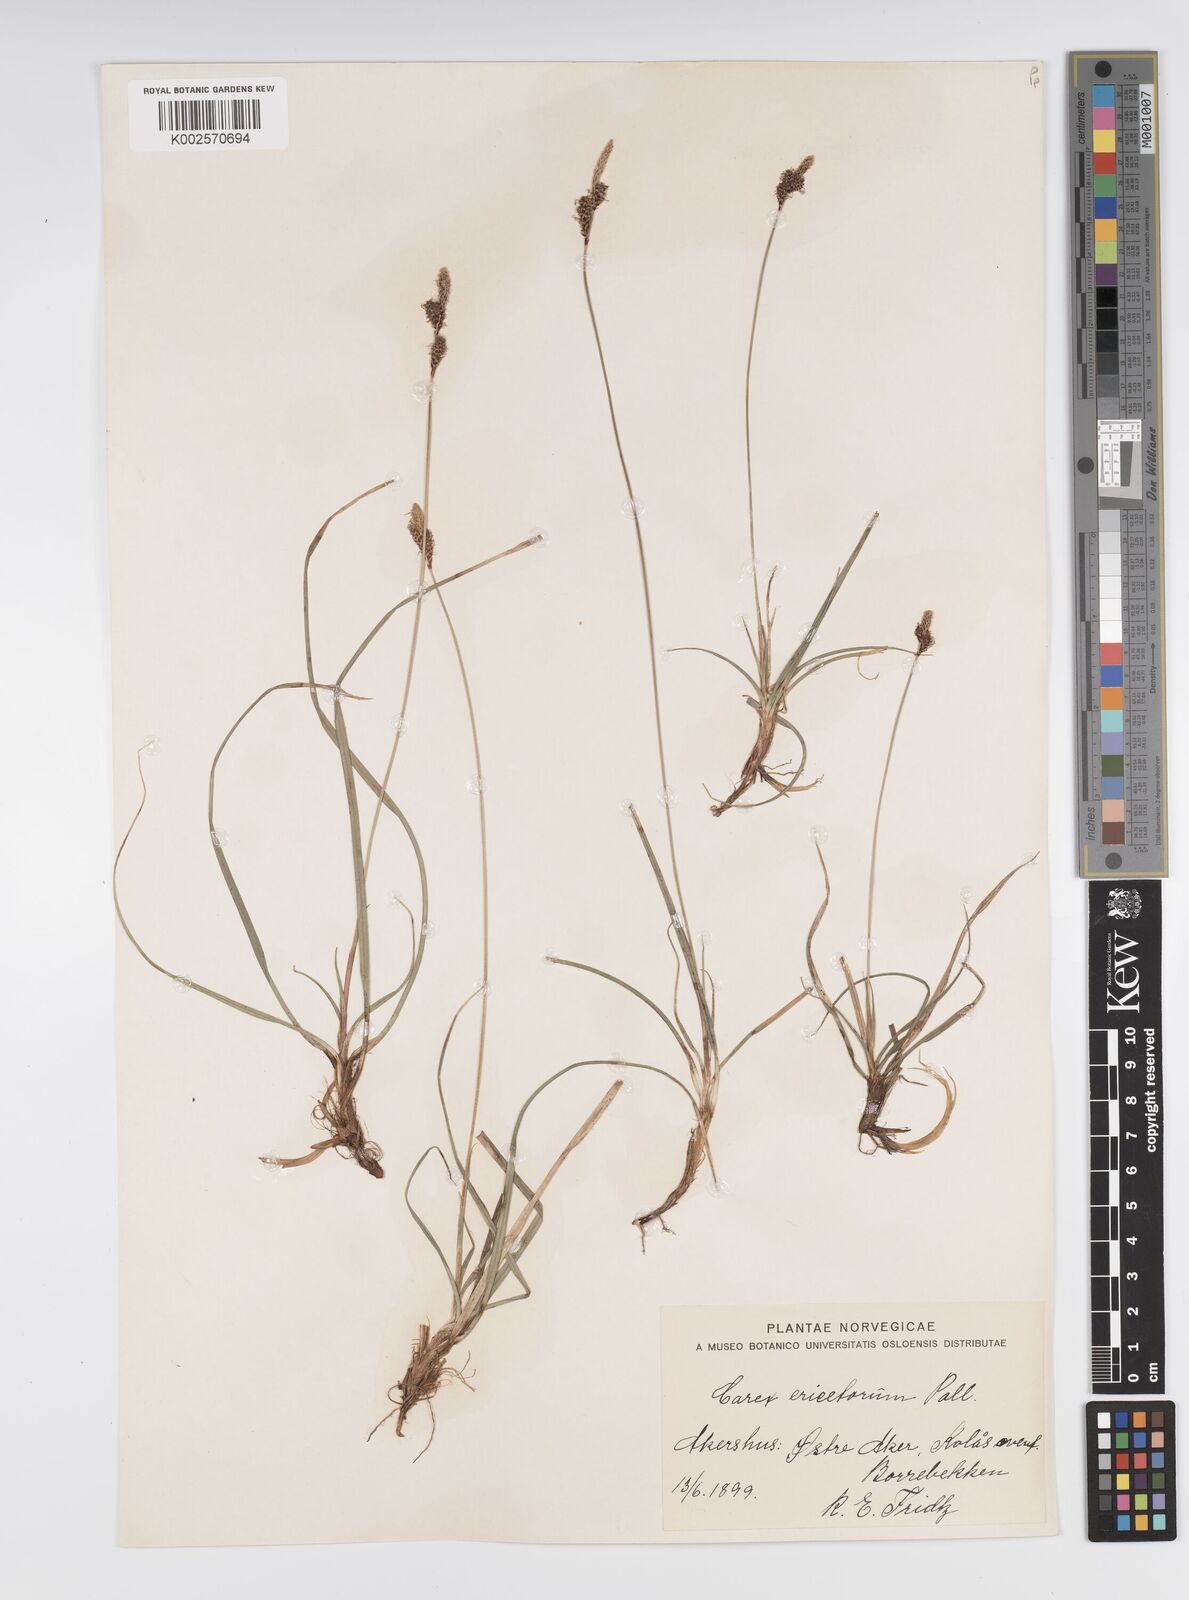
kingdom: Plantae
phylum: Tracheophyta
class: Liliopsida
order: Poales
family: Cyperaceae
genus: Carex
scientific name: Carex ericetorum
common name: Rare spring-sedge
